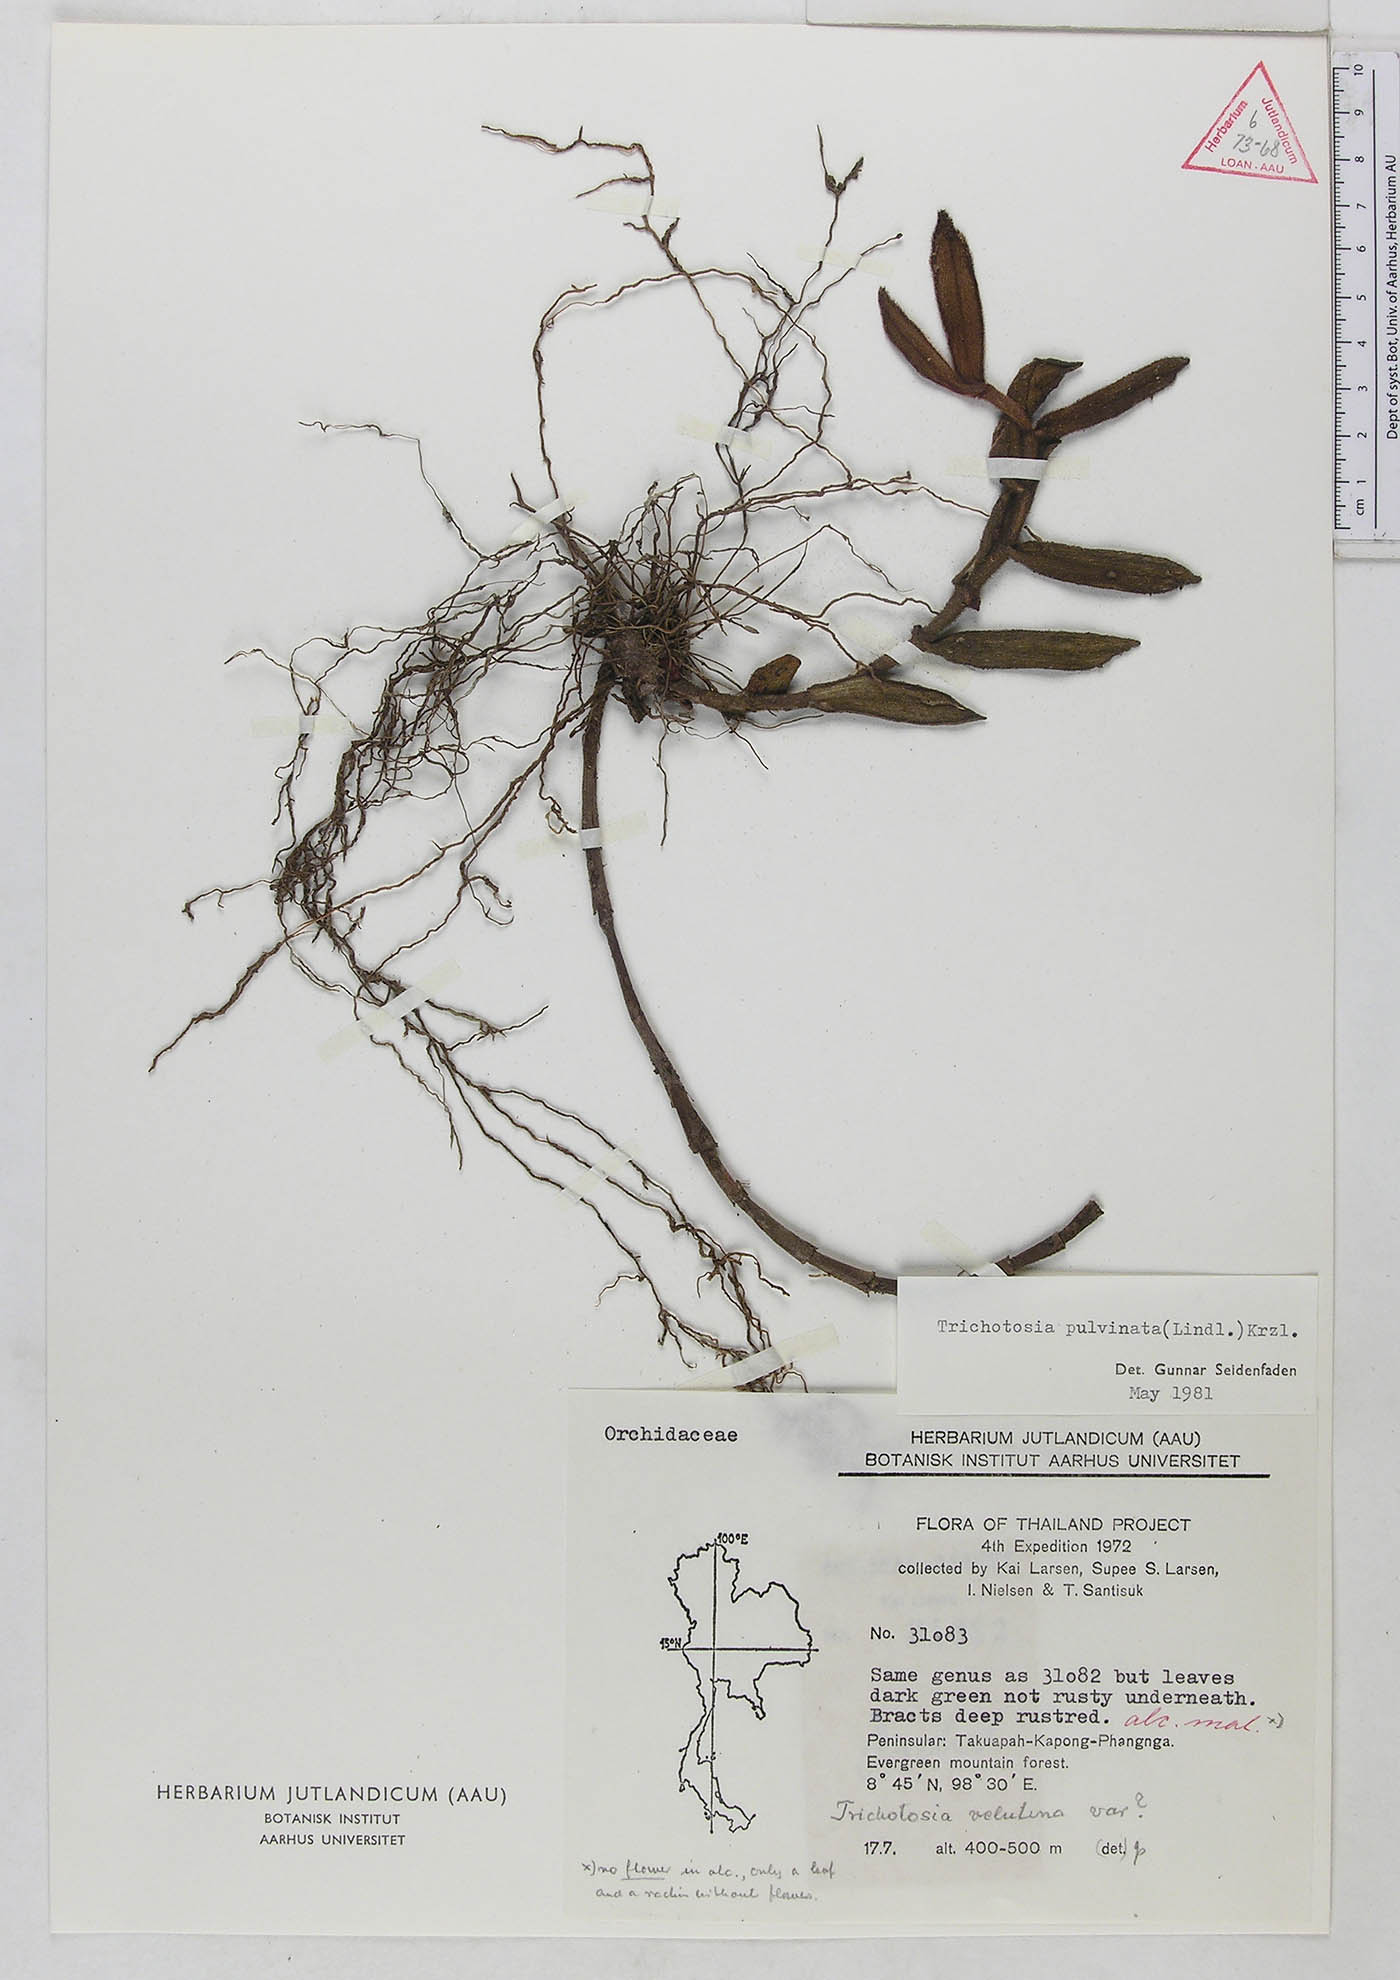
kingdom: Plantae
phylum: Tracheophyta
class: Liliopsida
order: Asparagales
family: Orchidaceae
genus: Trichotosia
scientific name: Trichotosia pulvinata
